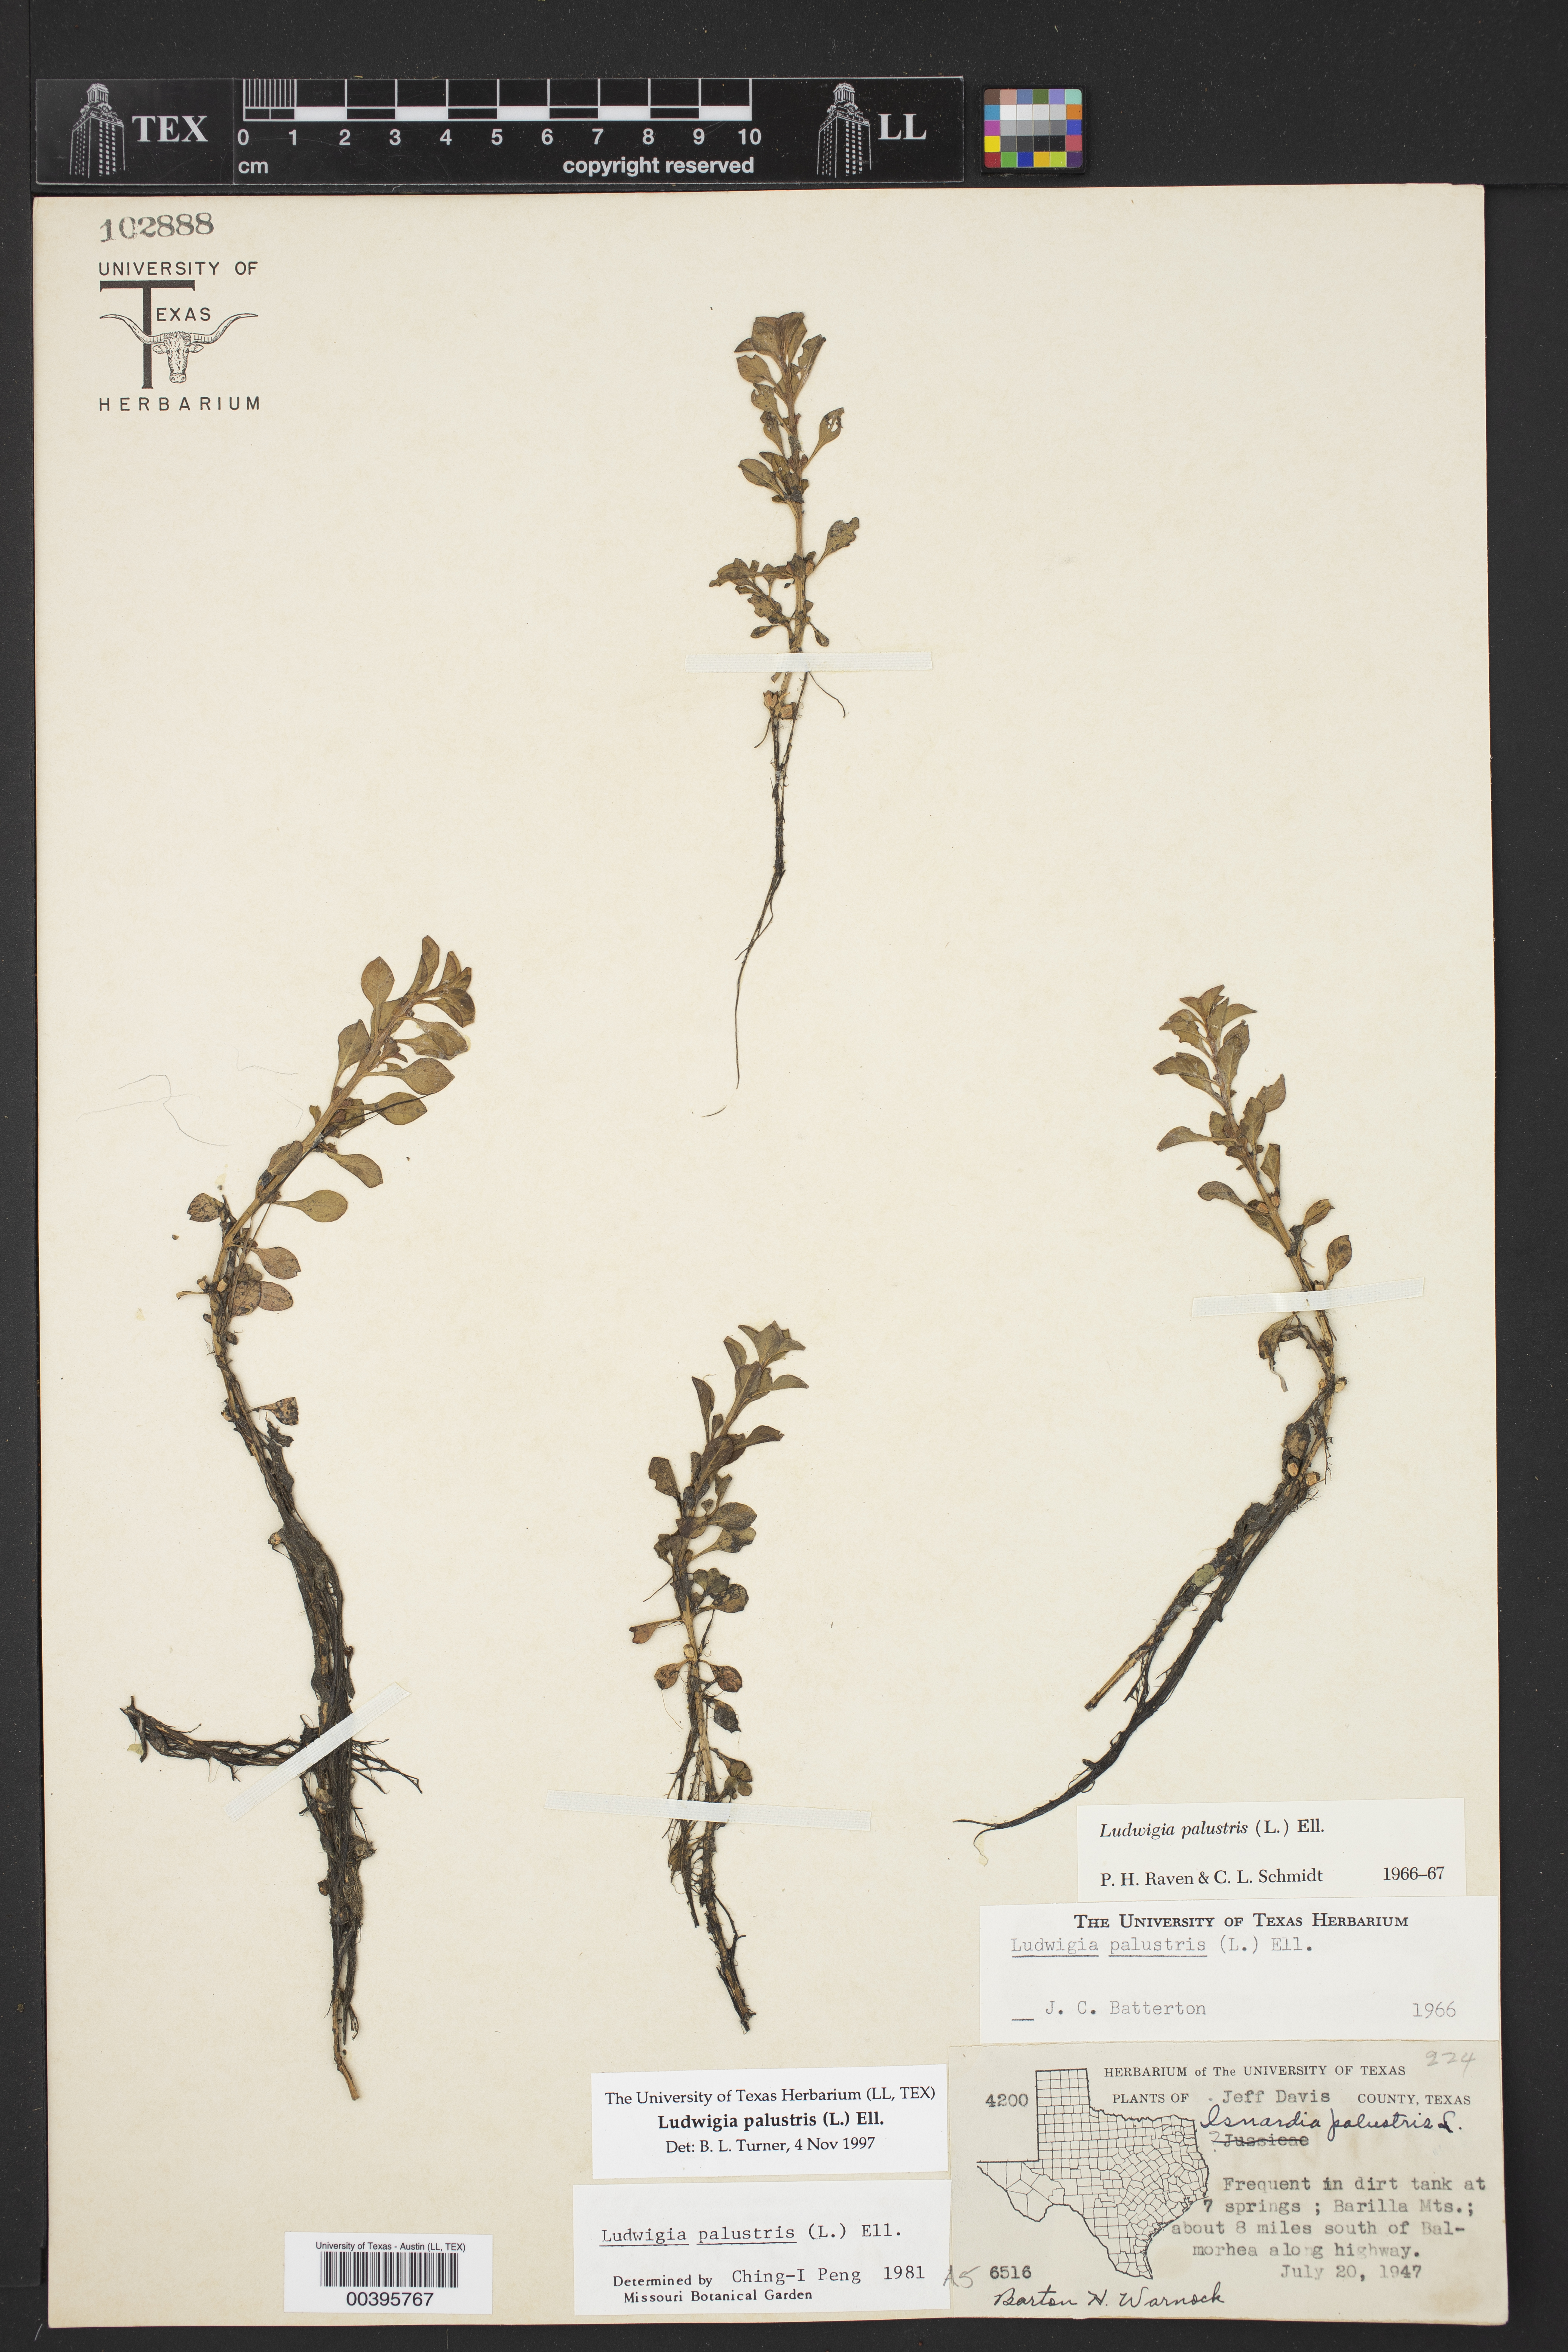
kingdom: Plantae
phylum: Tracheophyta
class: Magnoliopsida
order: Myrtales
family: Onagraceae
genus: Ludwigia
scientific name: Ludwigia palustris
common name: Hampshire-purslane
